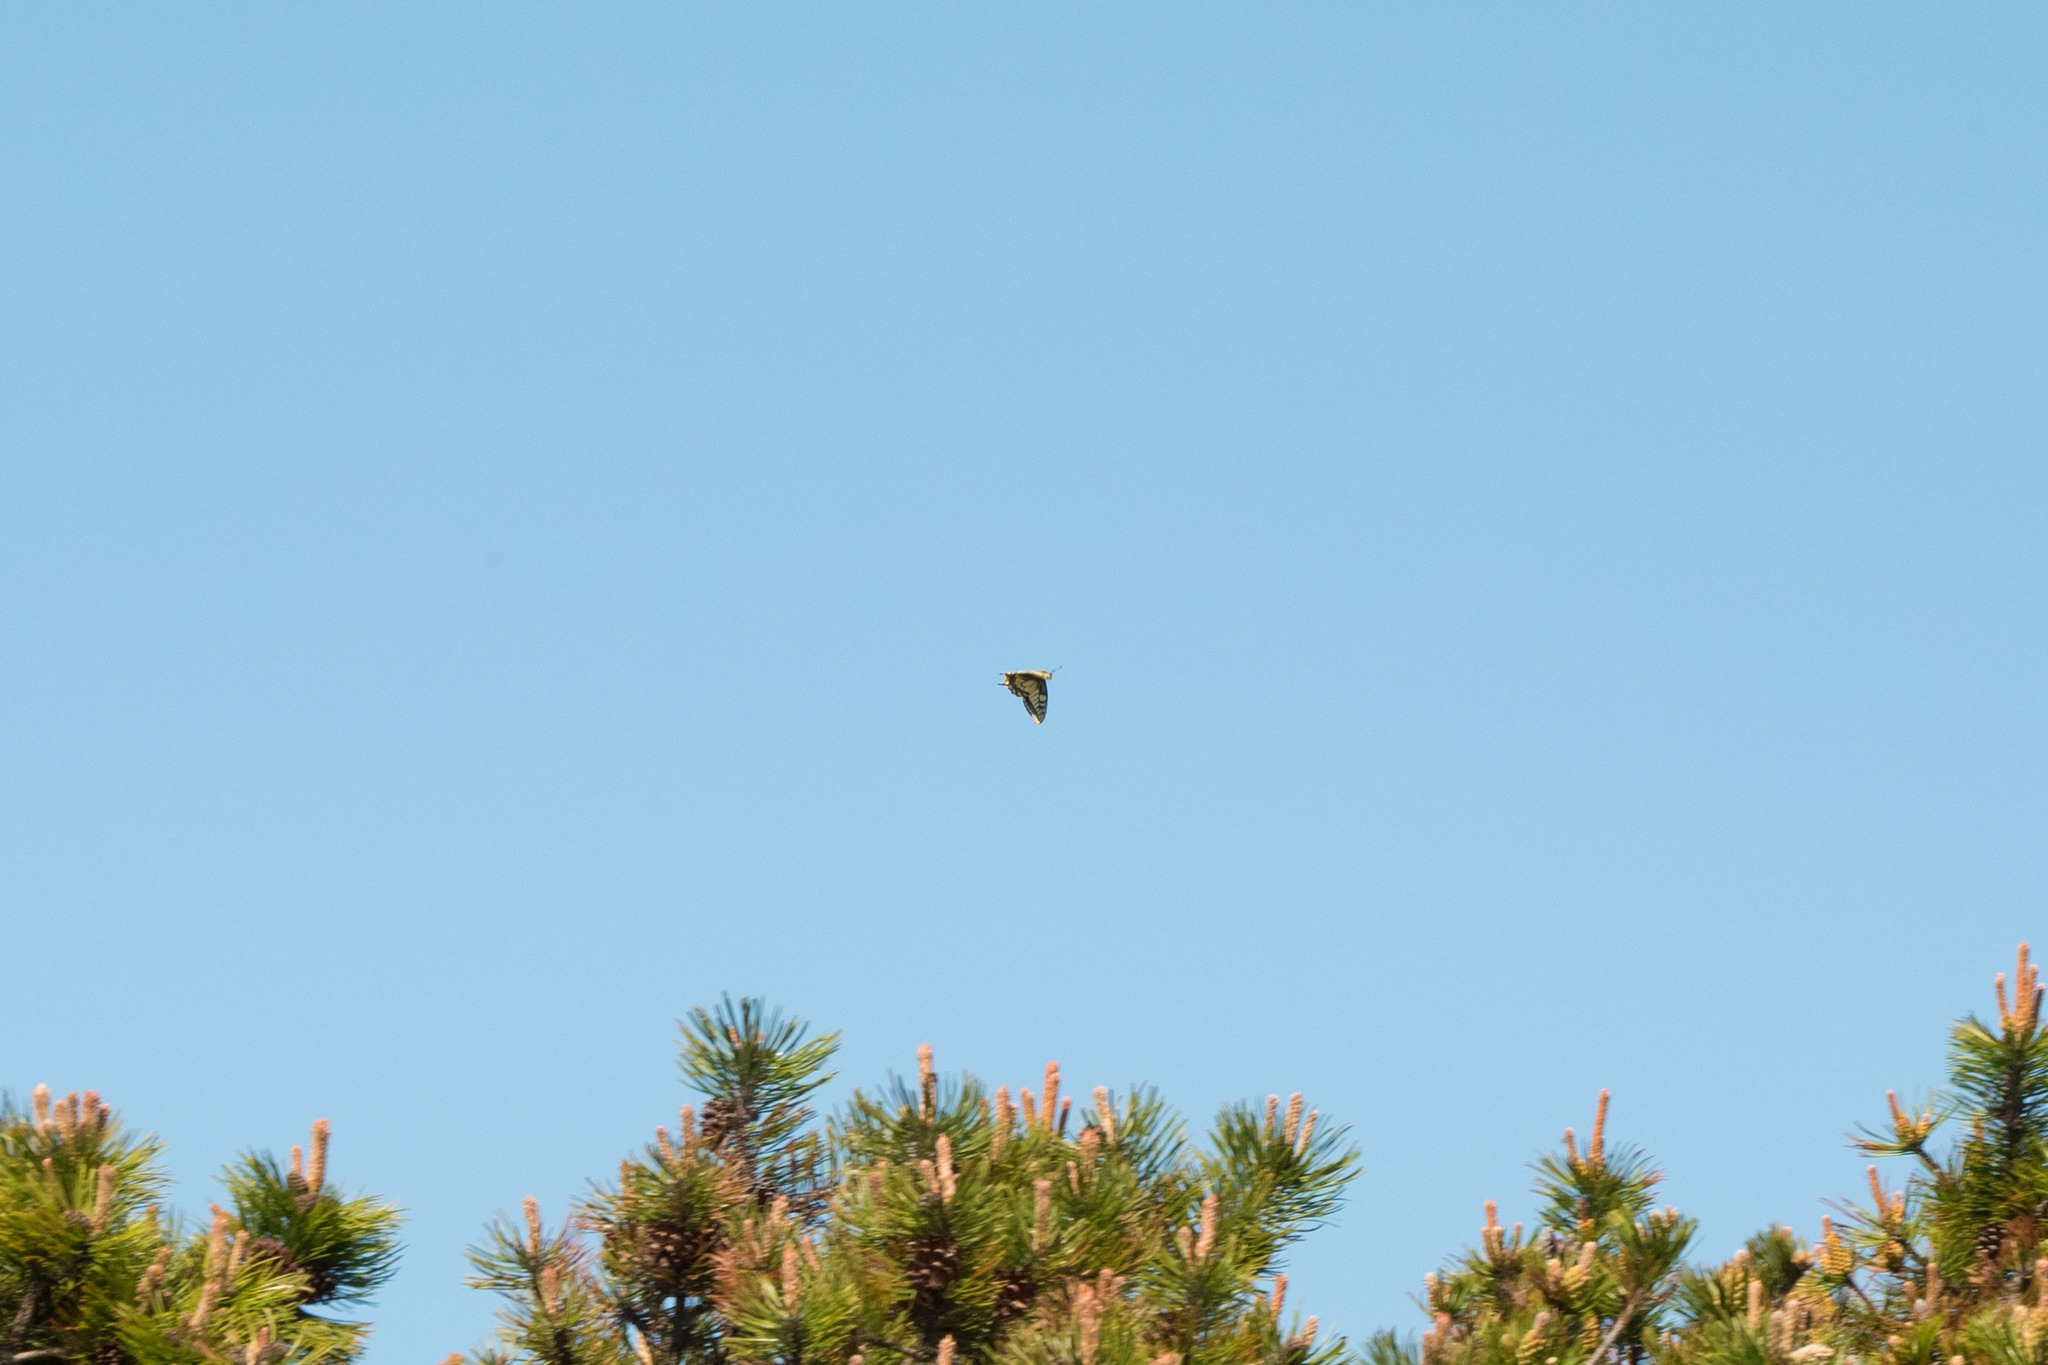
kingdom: Animalia
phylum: Arthropoda
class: Insecta
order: Lepidoptera
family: Papilionidae
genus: Papilio
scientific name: Papilio machaon
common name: Svalehale
